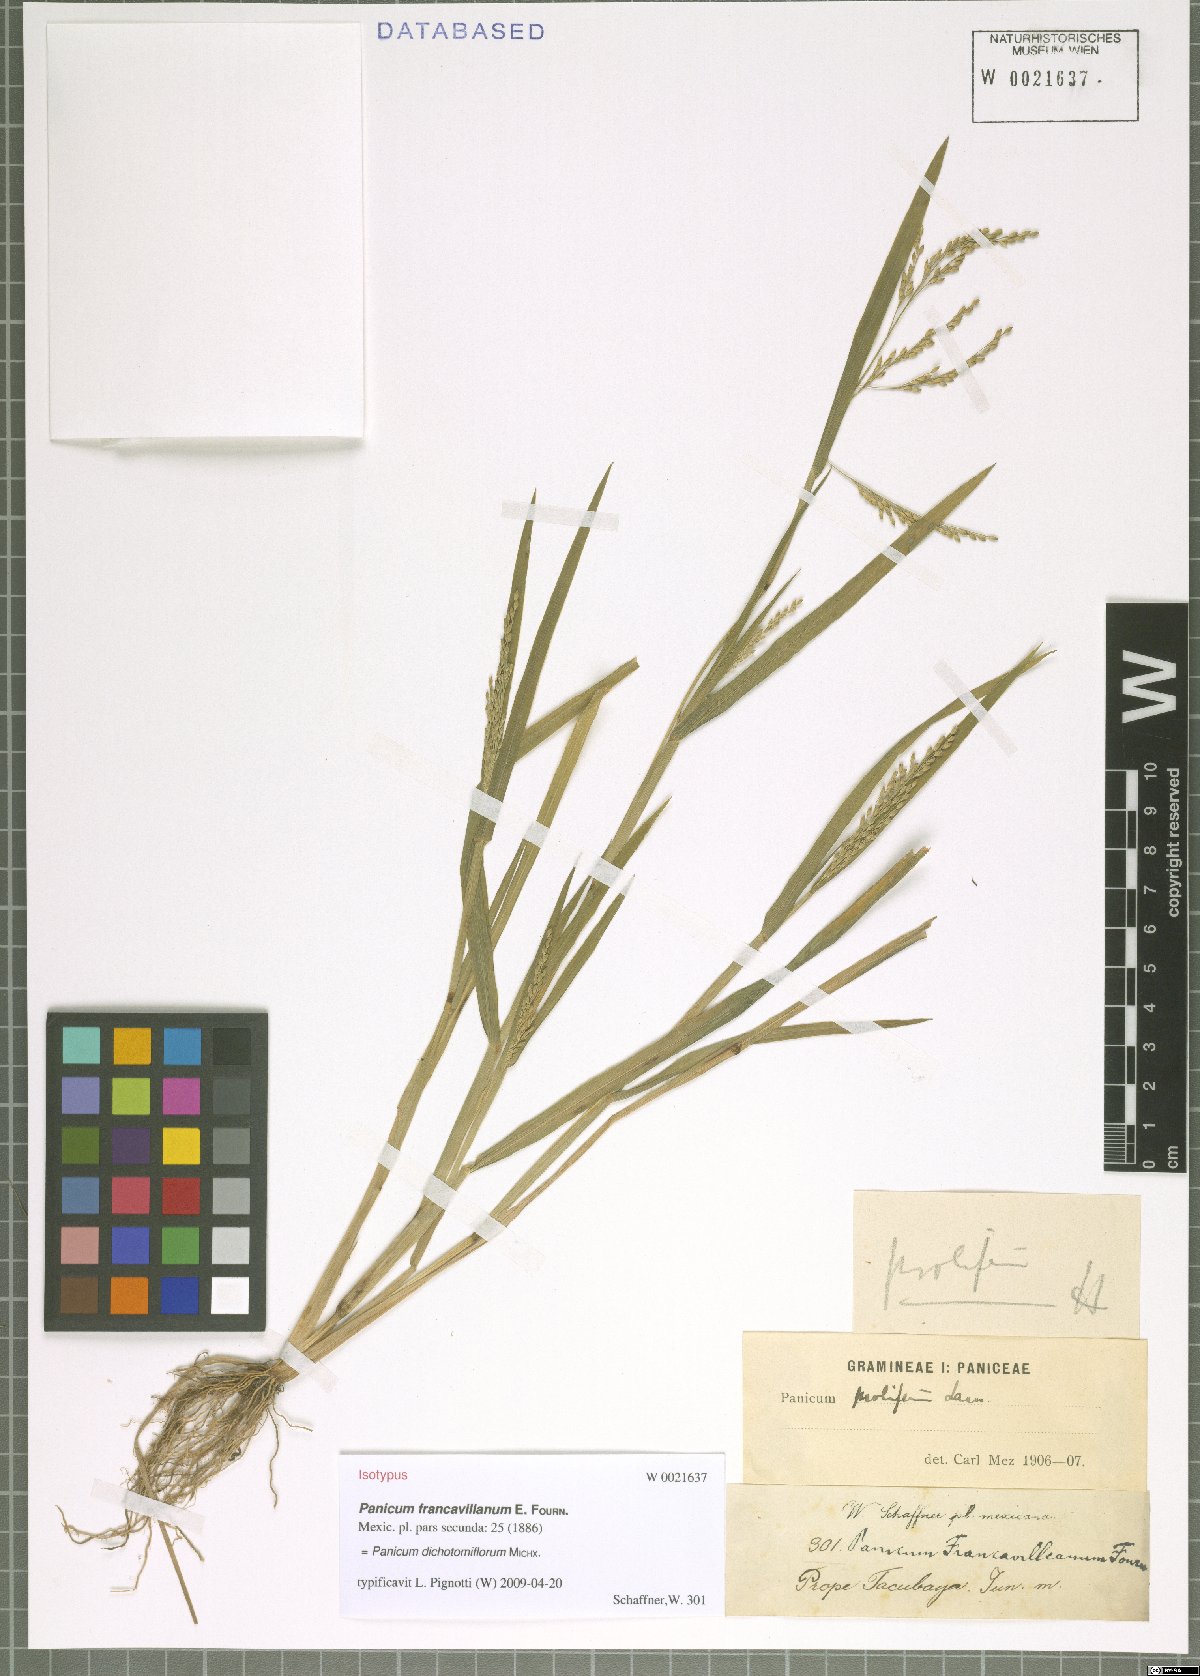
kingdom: Plantae
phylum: Tracheophyta
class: Liliopsida
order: Poales
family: Poaceae
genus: Panicum
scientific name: Panicum dichotomiflorum
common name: Autumn millet
